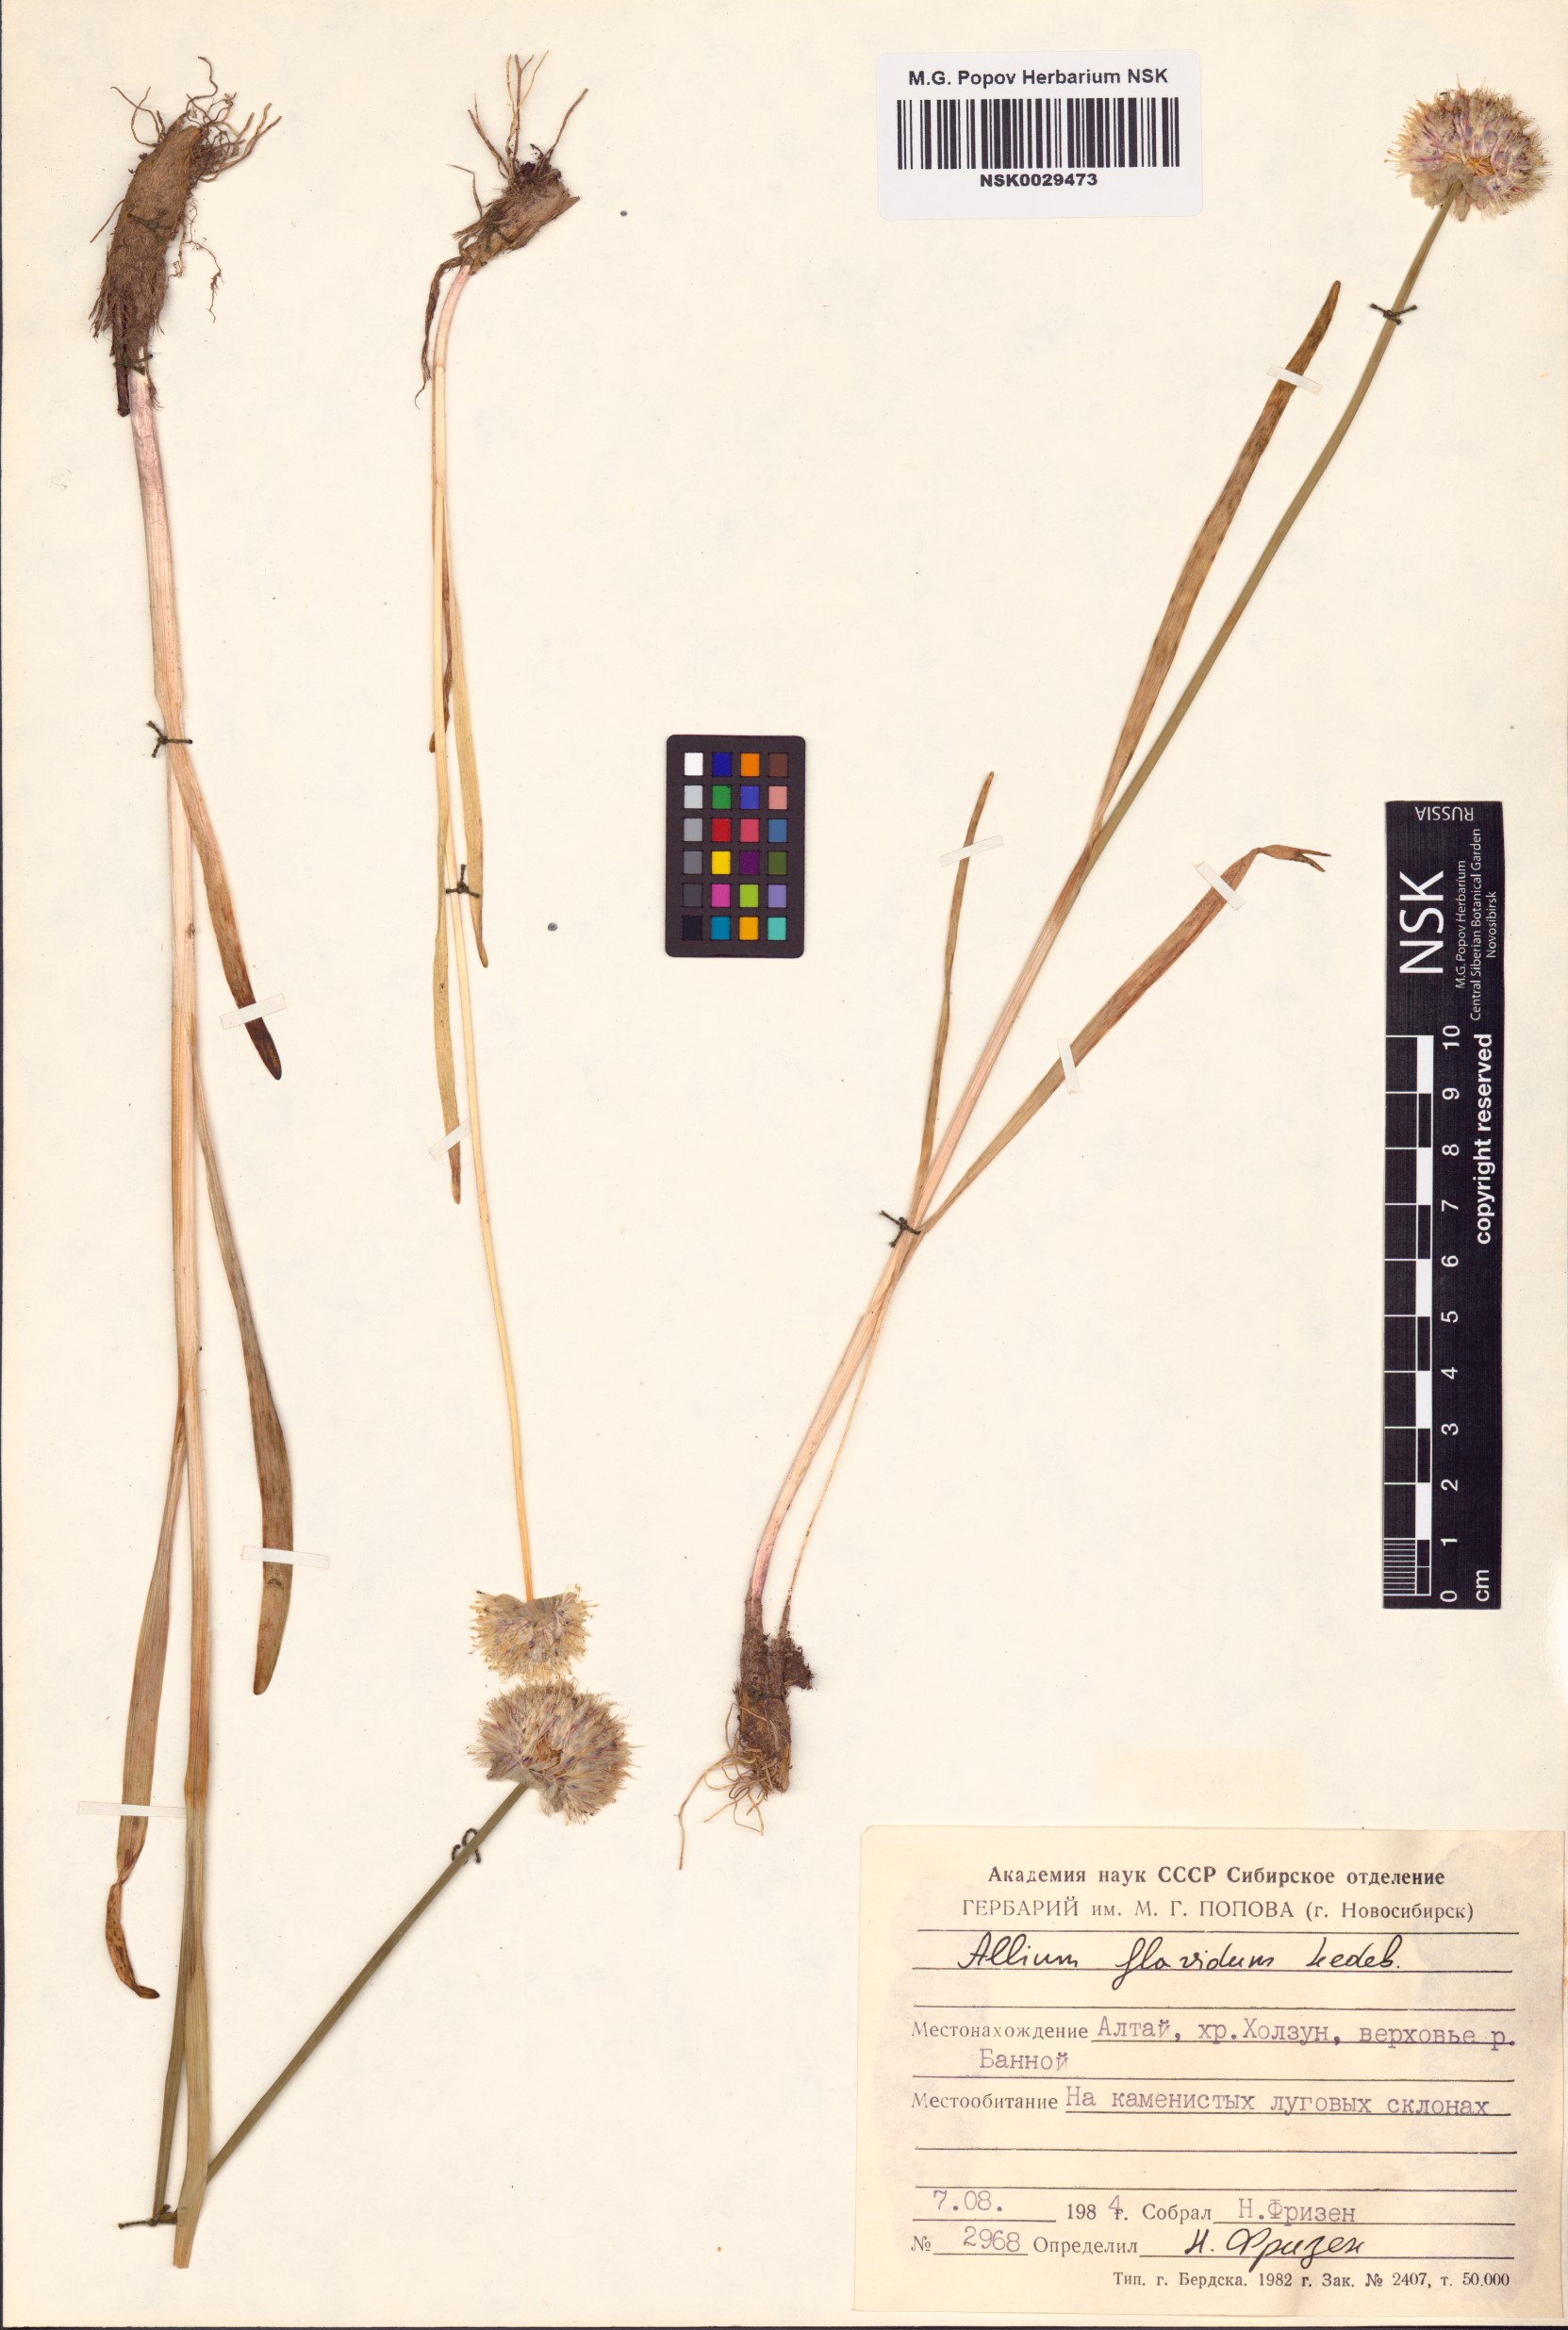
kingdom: Plantae
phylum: Tracheophyta
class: Liliopsida
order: Asparagales
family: Amaryllidaceae
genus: Allium
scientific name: Allium flavidum
